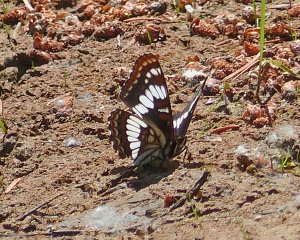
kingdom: Animalia
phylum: Arthropoda
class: Insecta
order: Lepidoptera
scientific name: Lepidoptera
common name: Butterflies
